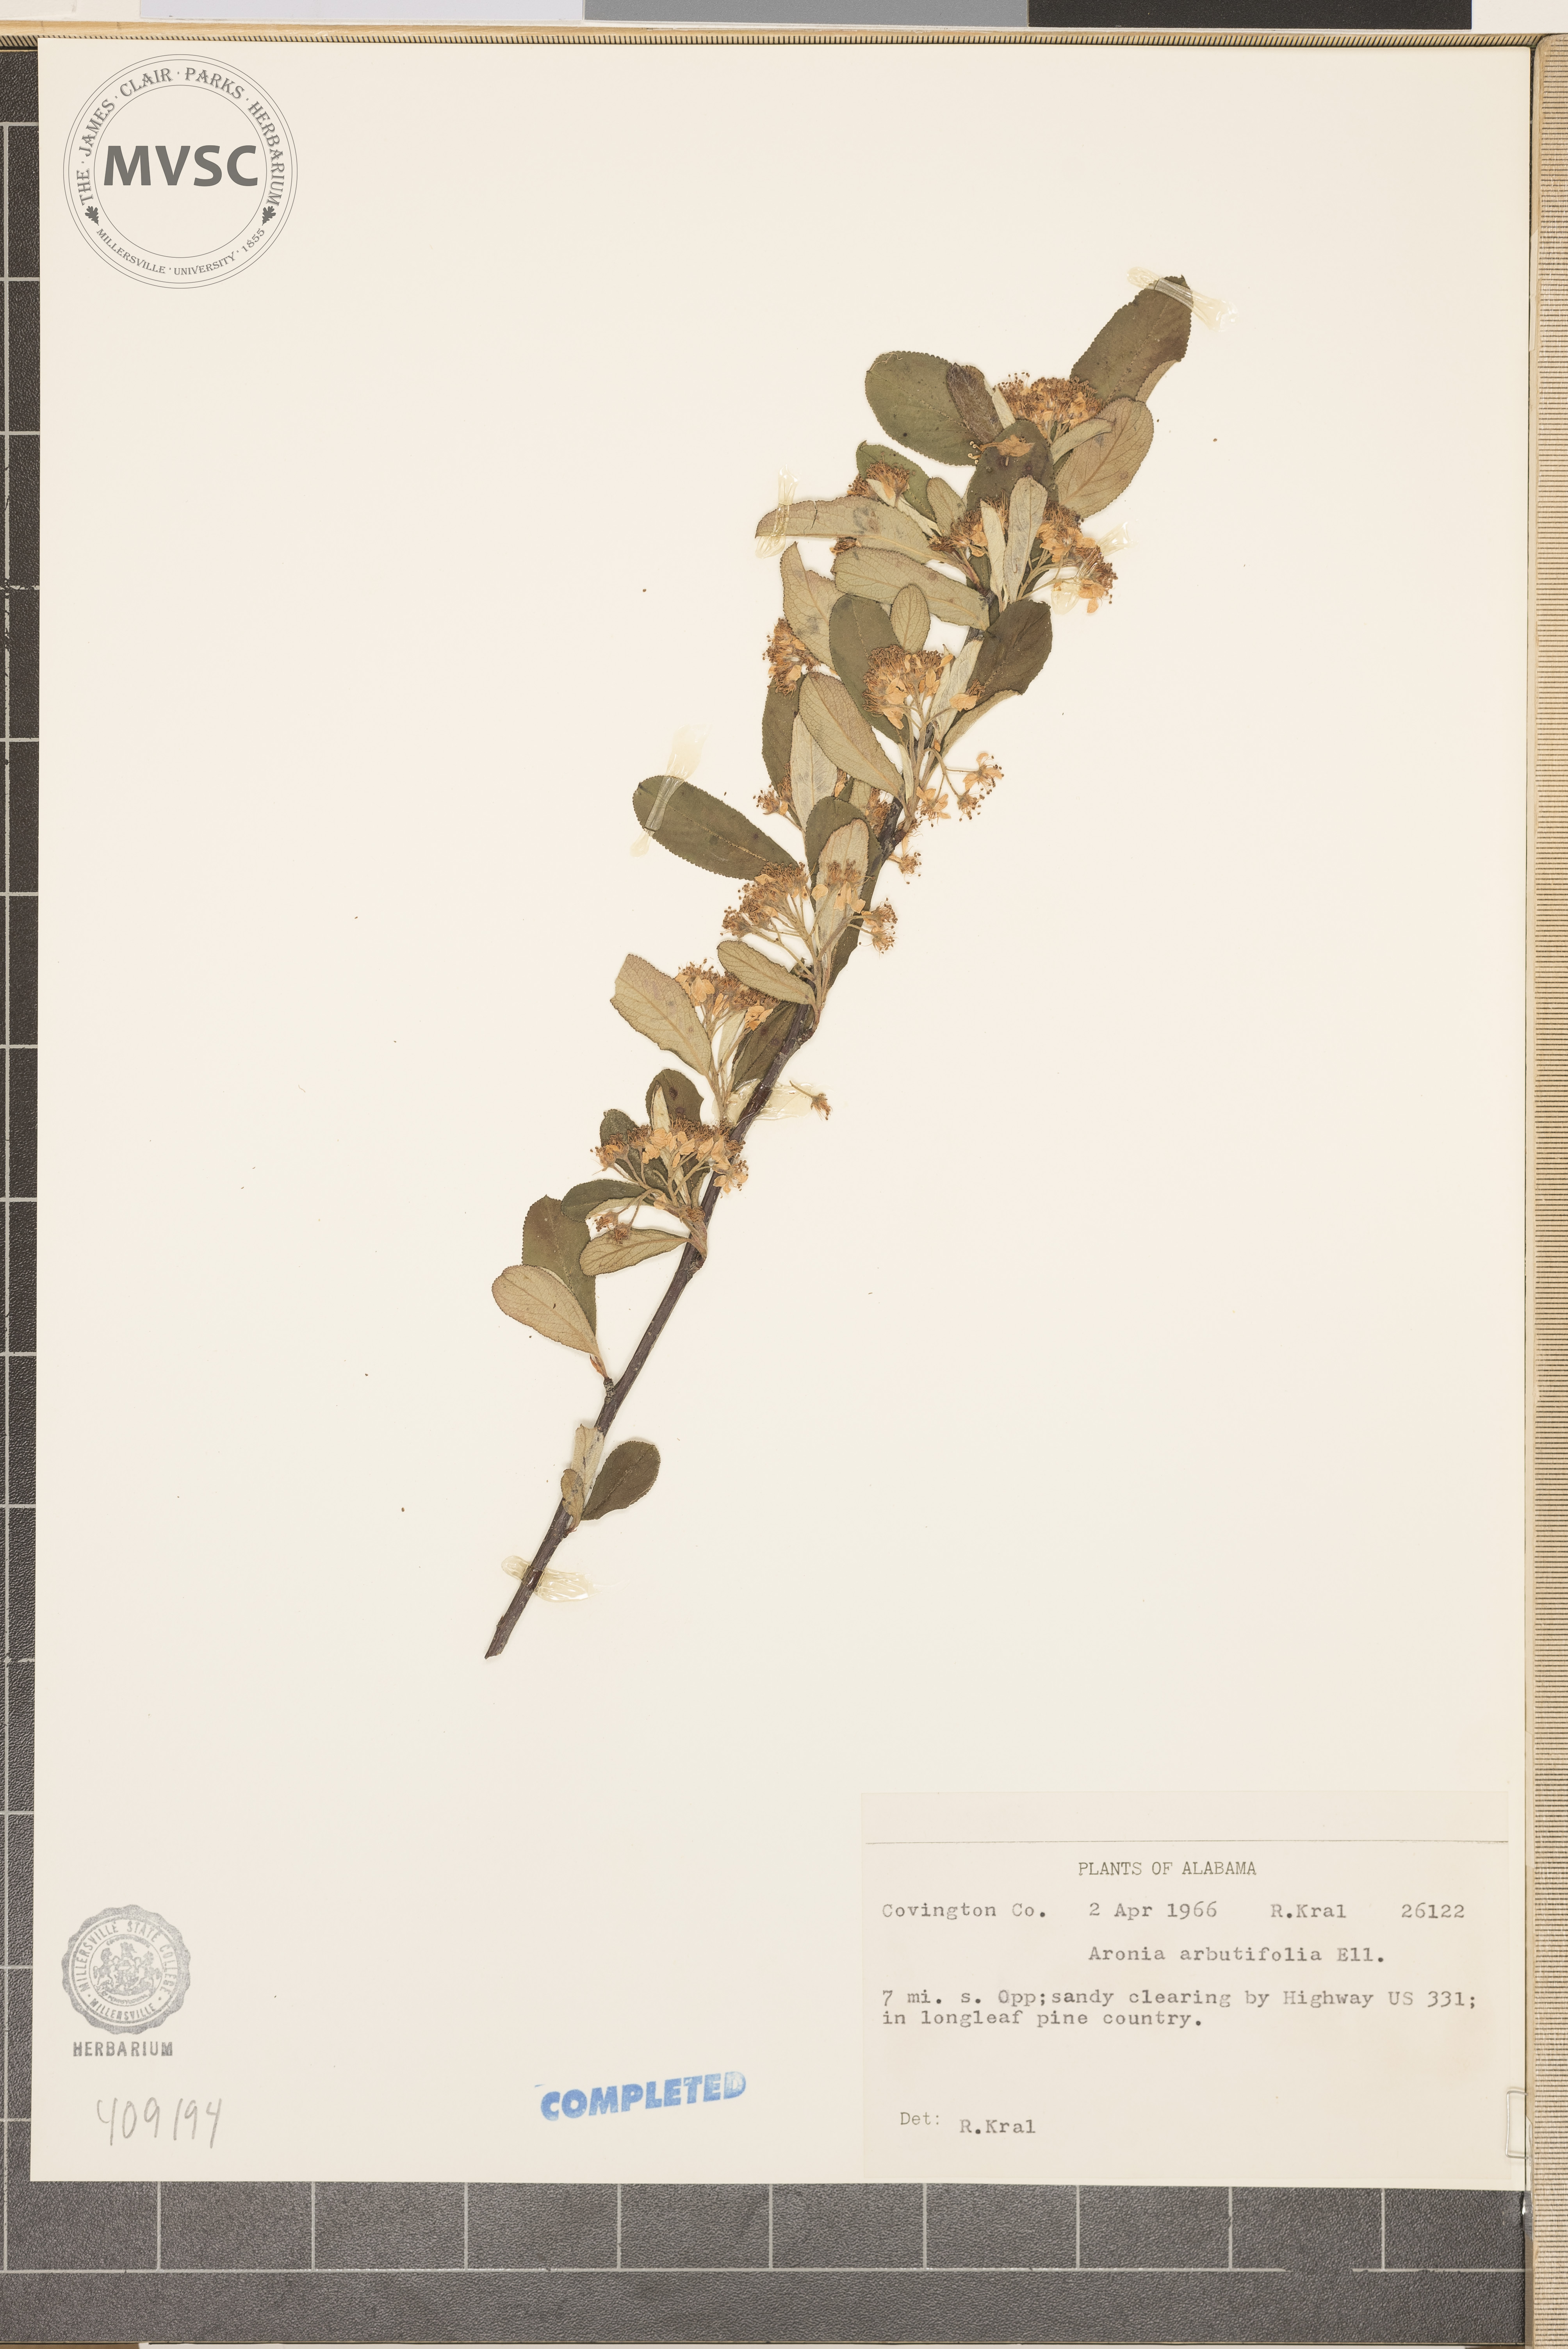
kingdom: Plantae
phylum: Tracheophyta
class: Magnoliopsida
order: Rosales
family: Rosaceae
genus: Aronia
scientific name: Aronia arbutifolia
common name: Red chokeberry
